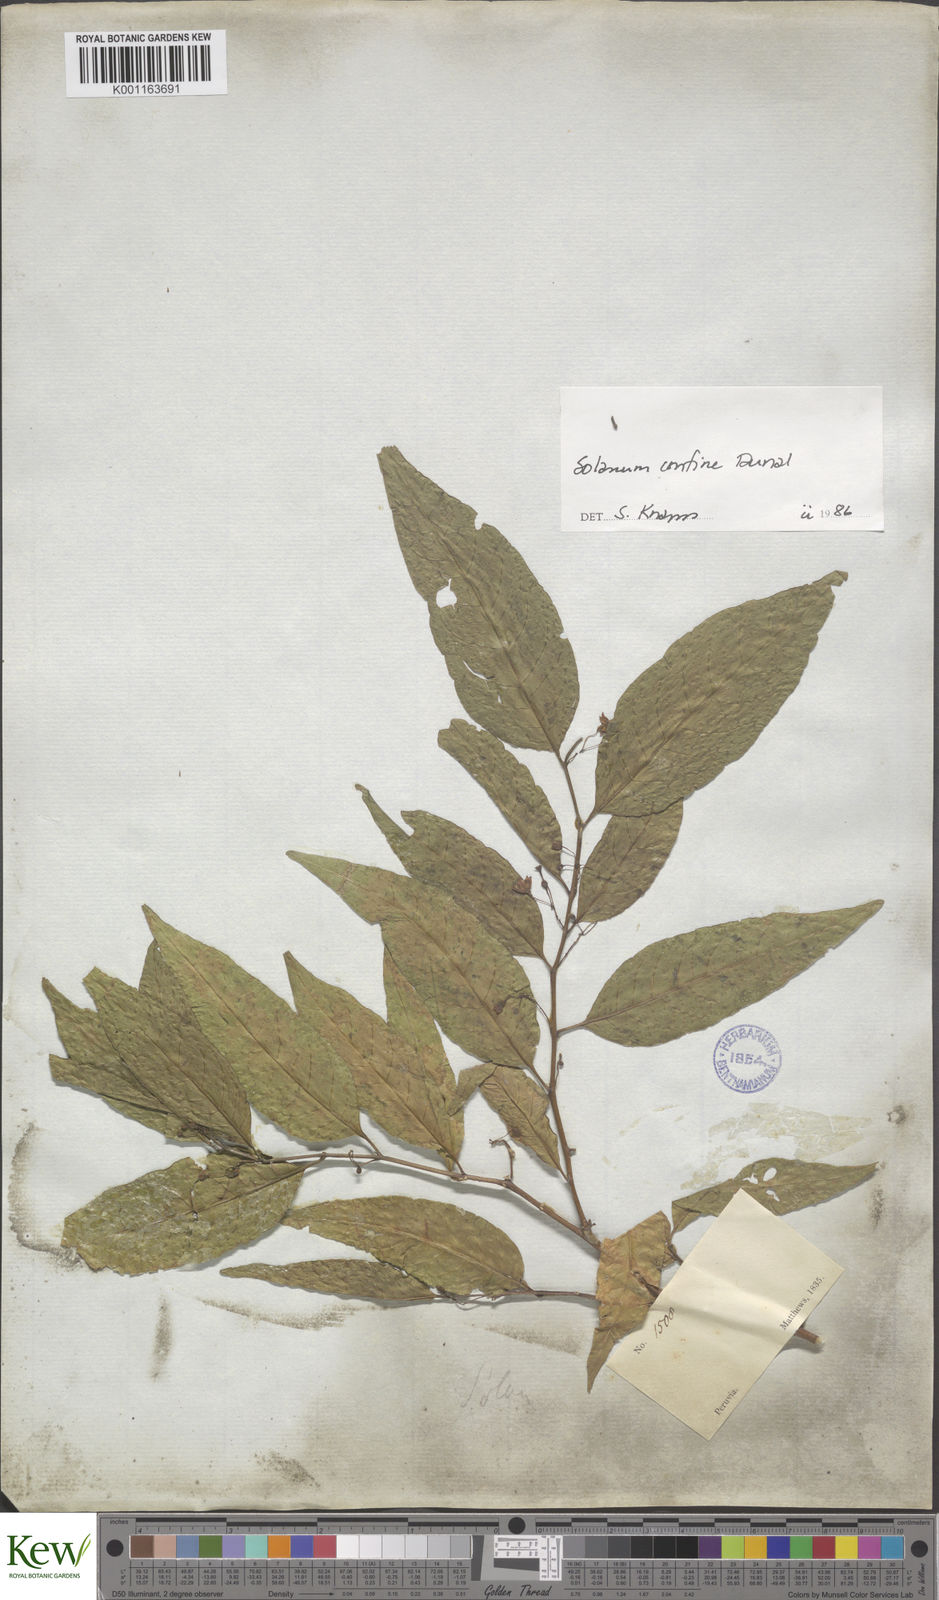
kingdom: Plantae
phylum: Tracheophyta
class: Magnoliopsida
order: Solanales
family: Solanaceae
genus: Solanum
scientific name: Solanum confine
